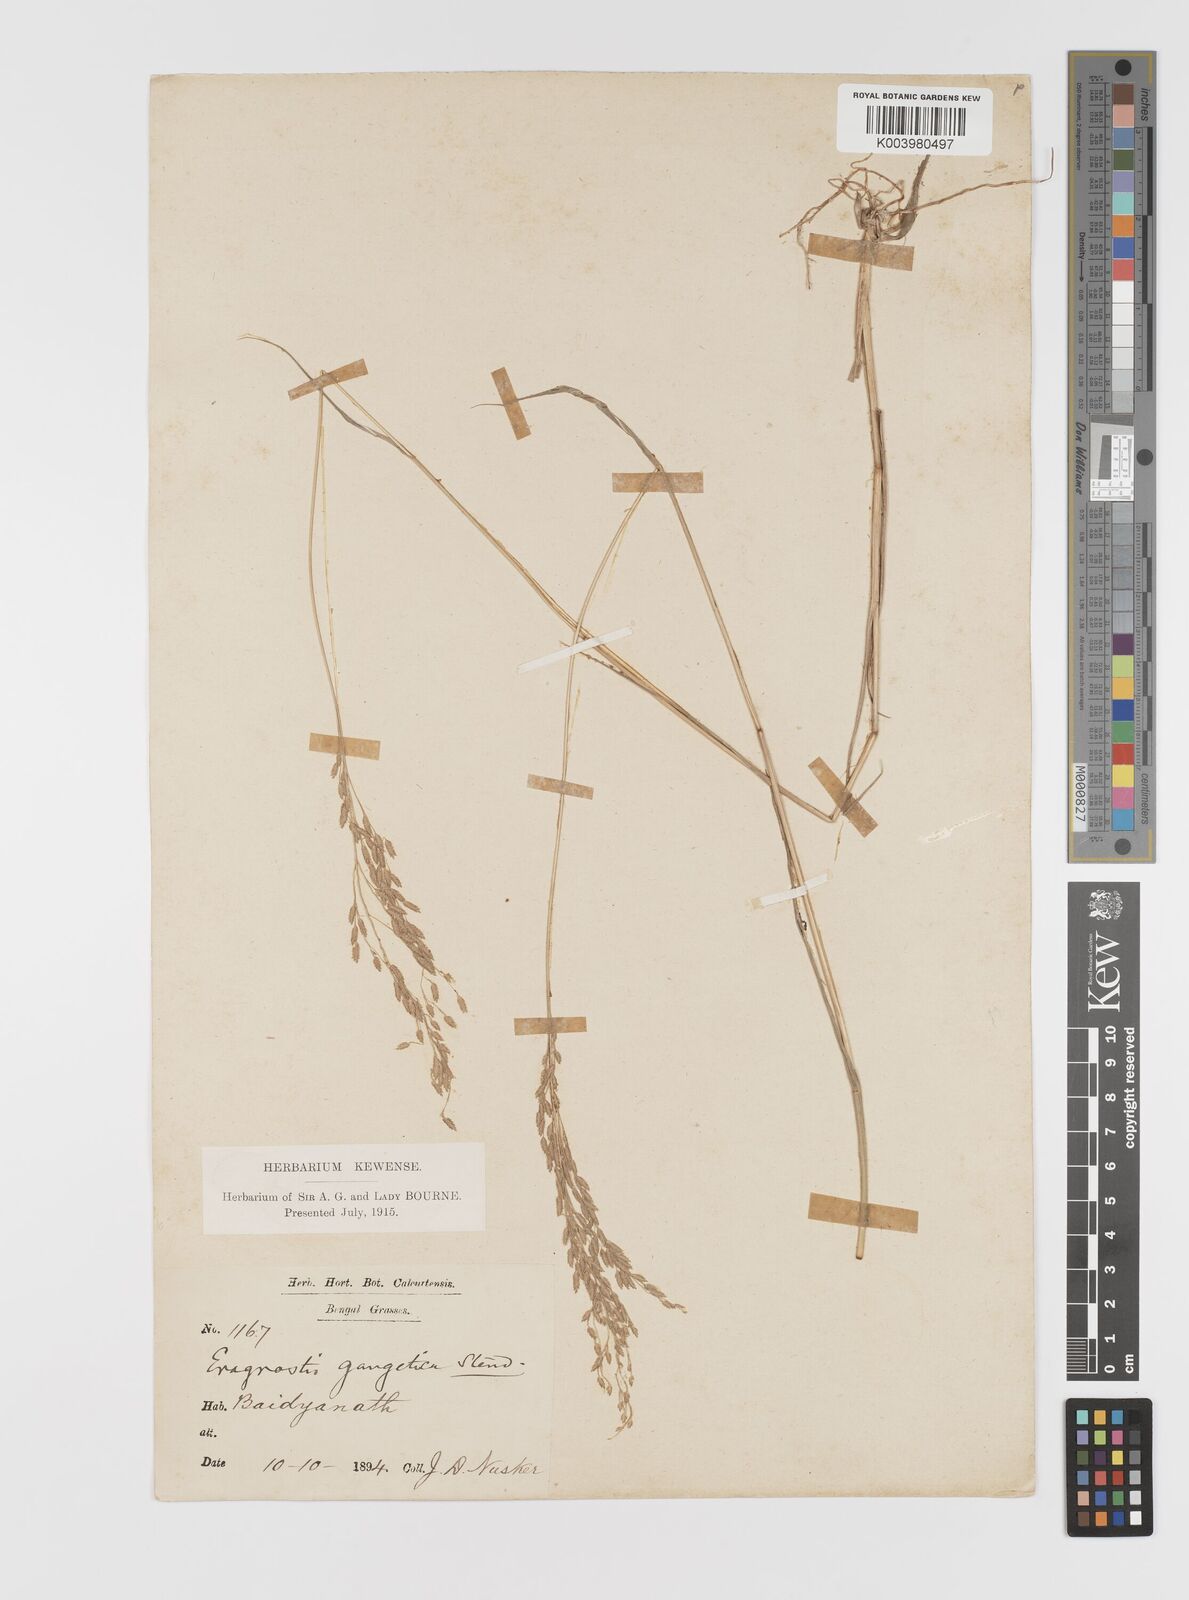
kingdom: Plantae
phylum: Tracheophyta
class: Liliopsida
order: Poales
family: Poaceae
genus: Eragrostis
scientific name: Eragrostis
